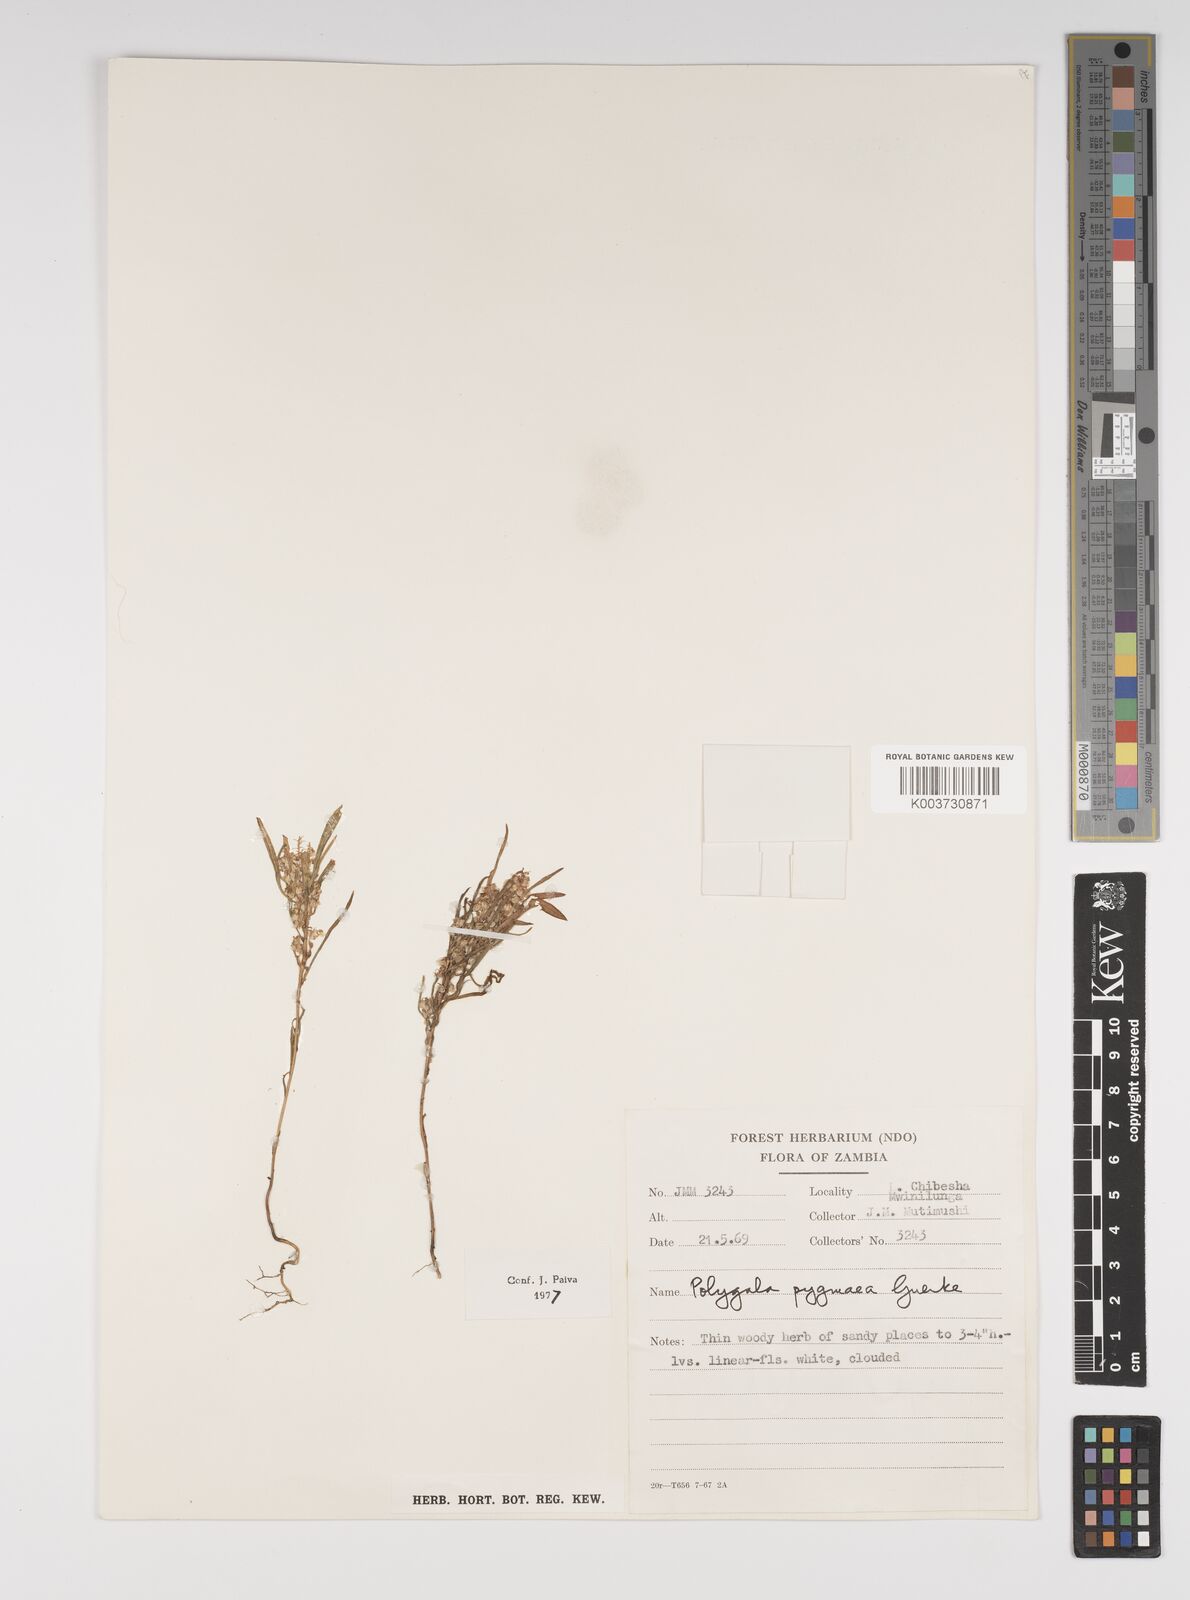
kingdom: Plantae
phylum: Tracheophyta
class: Magnoliopsida
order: Fabales
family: Polygalaceae
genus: Polygala
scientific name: Polygala welwitschii
